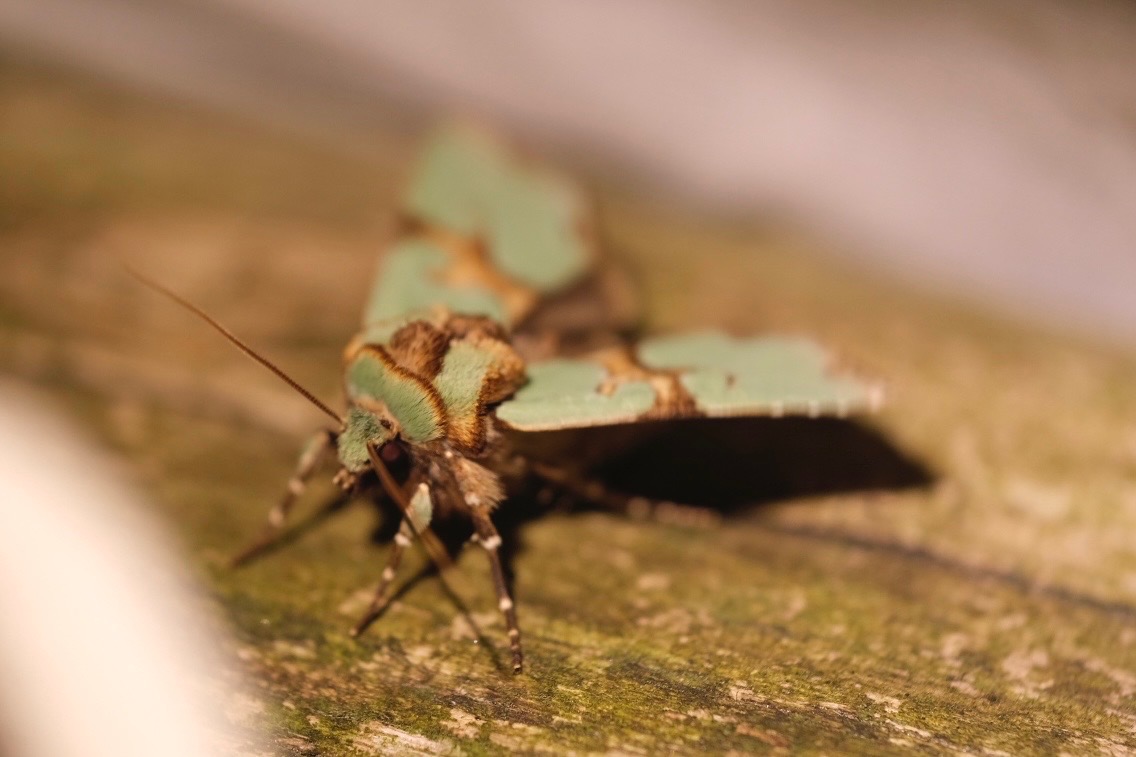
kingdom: Animalia
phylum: Arthropoda
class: Insecta
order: Lepidoptera
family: Noctuidae
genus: Staurophora
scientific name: Staurophora celsia
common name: Grøn pragtugle
